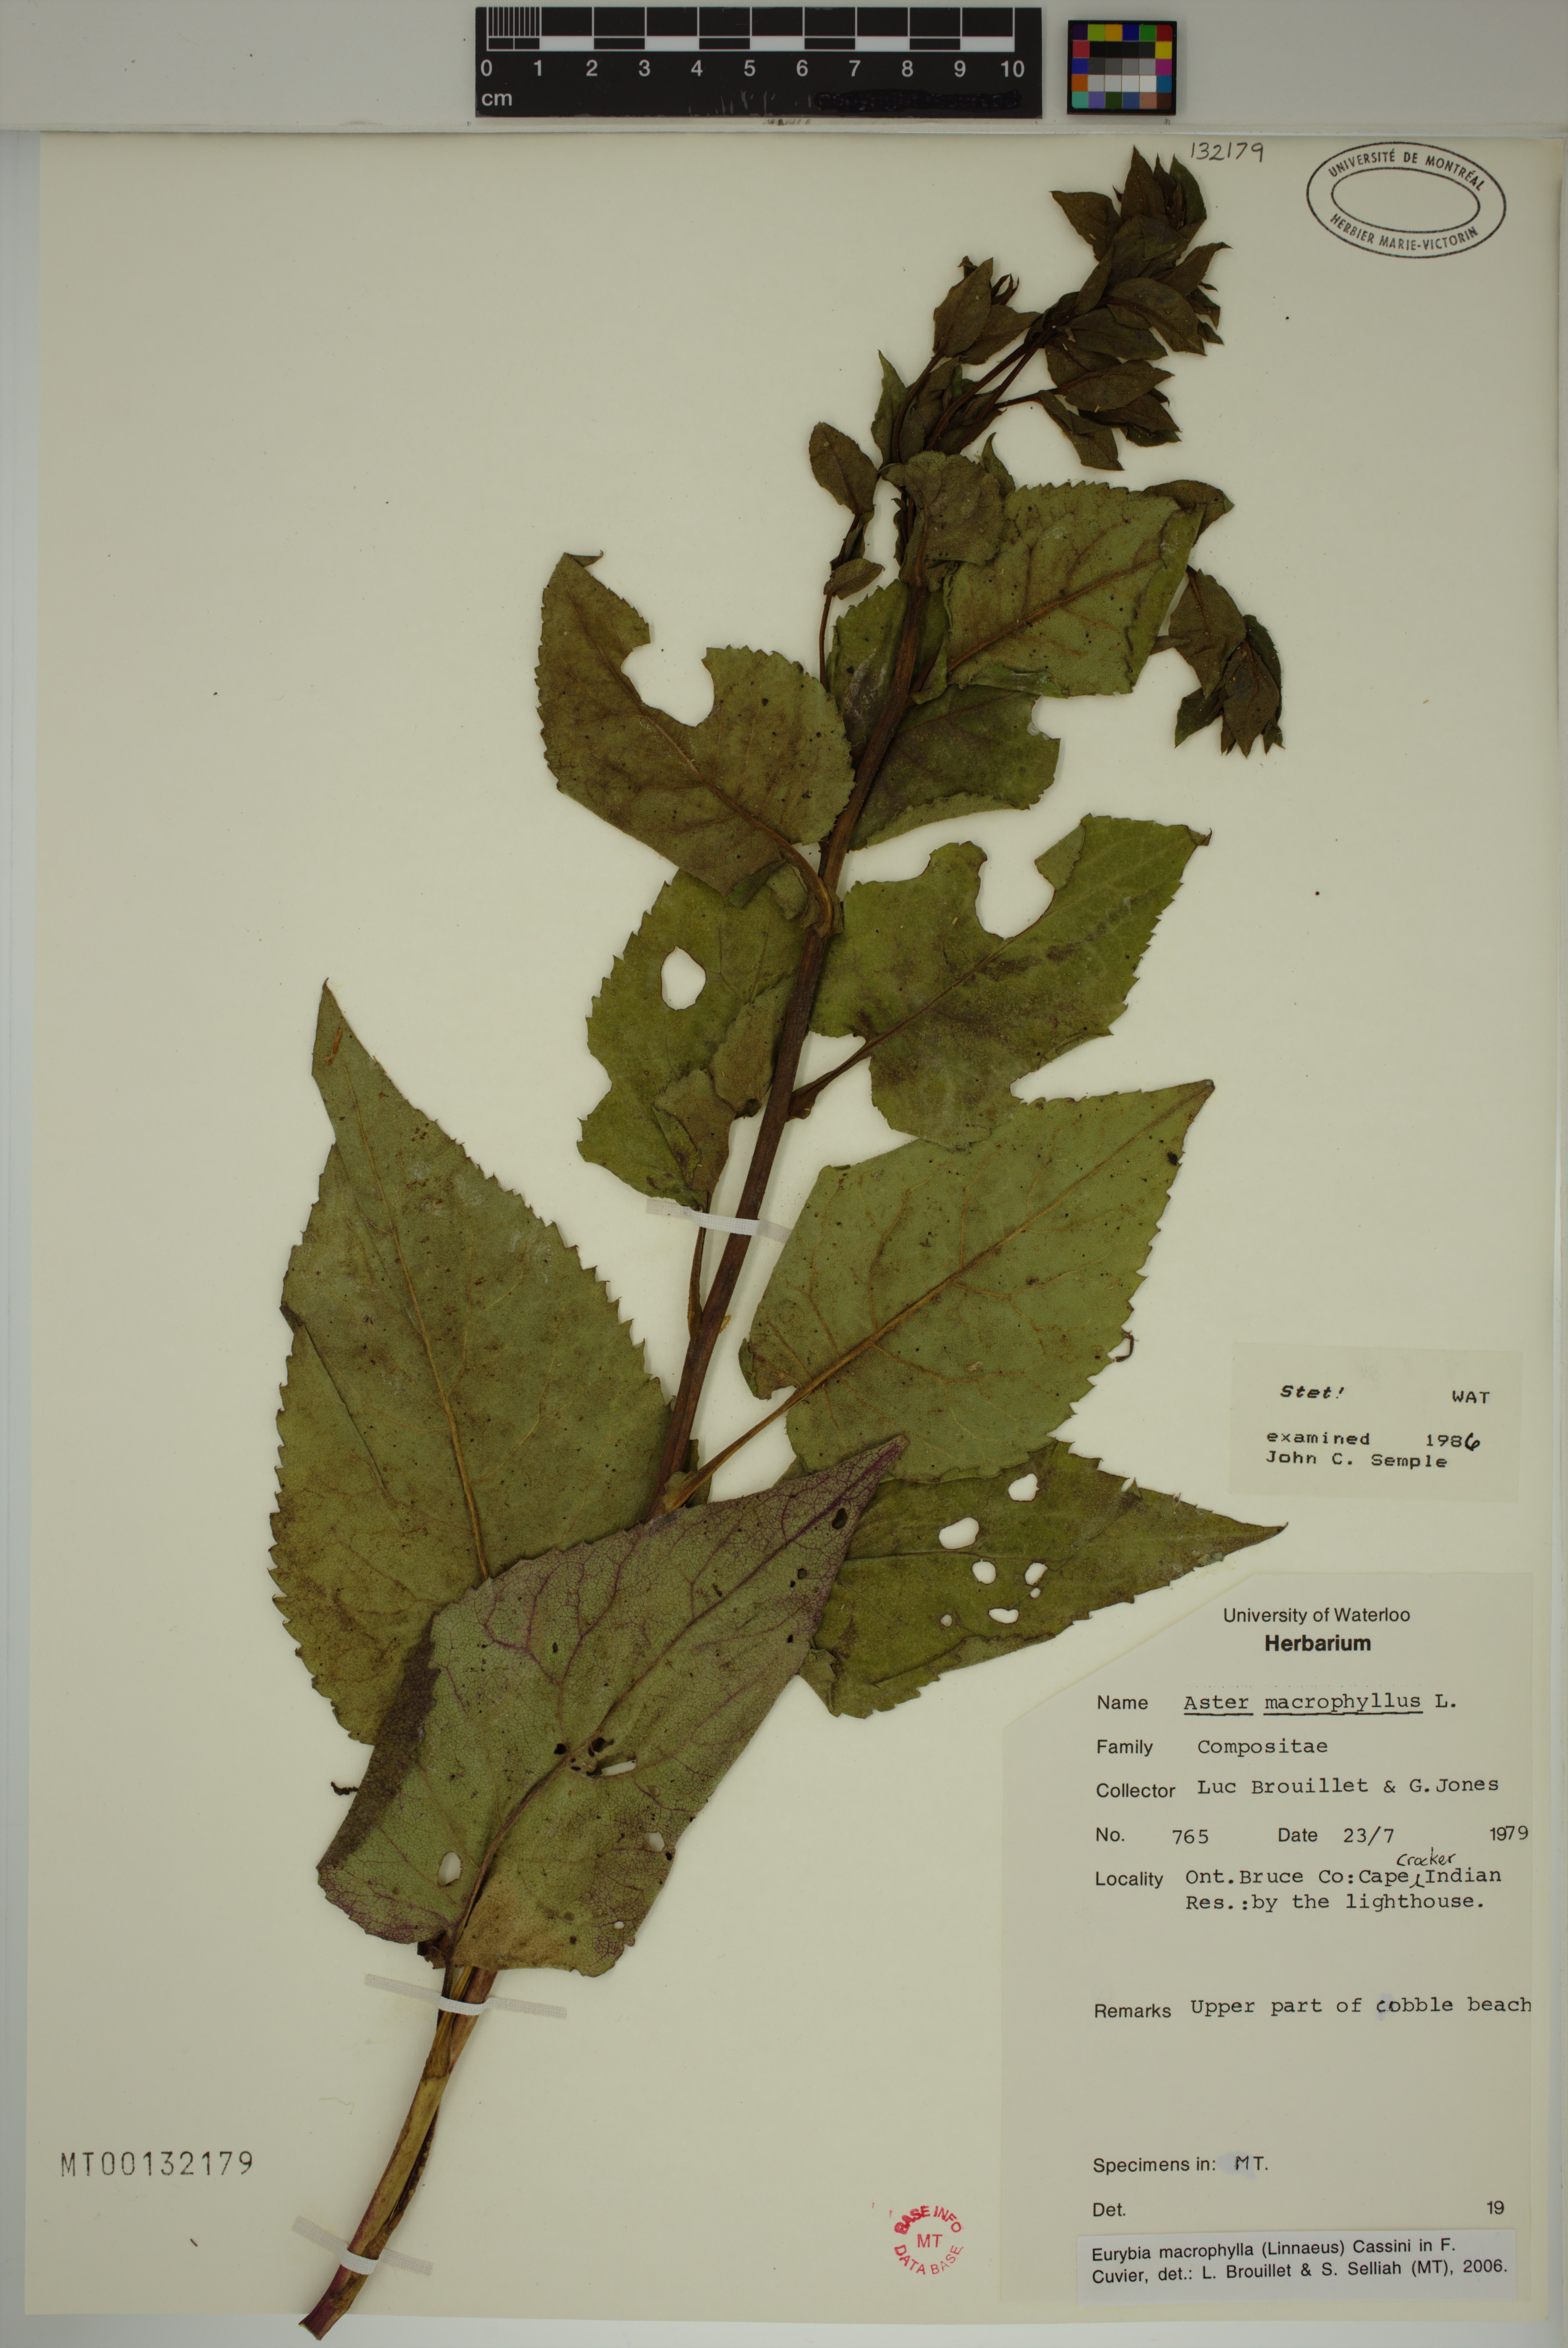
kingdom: Plantae
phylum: Tracheophyta
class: Magnoliopsida
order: Asterales
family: Asteraceae
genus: Eurybia
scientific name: Eurybia macrophylla
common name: Big-leaved aster
